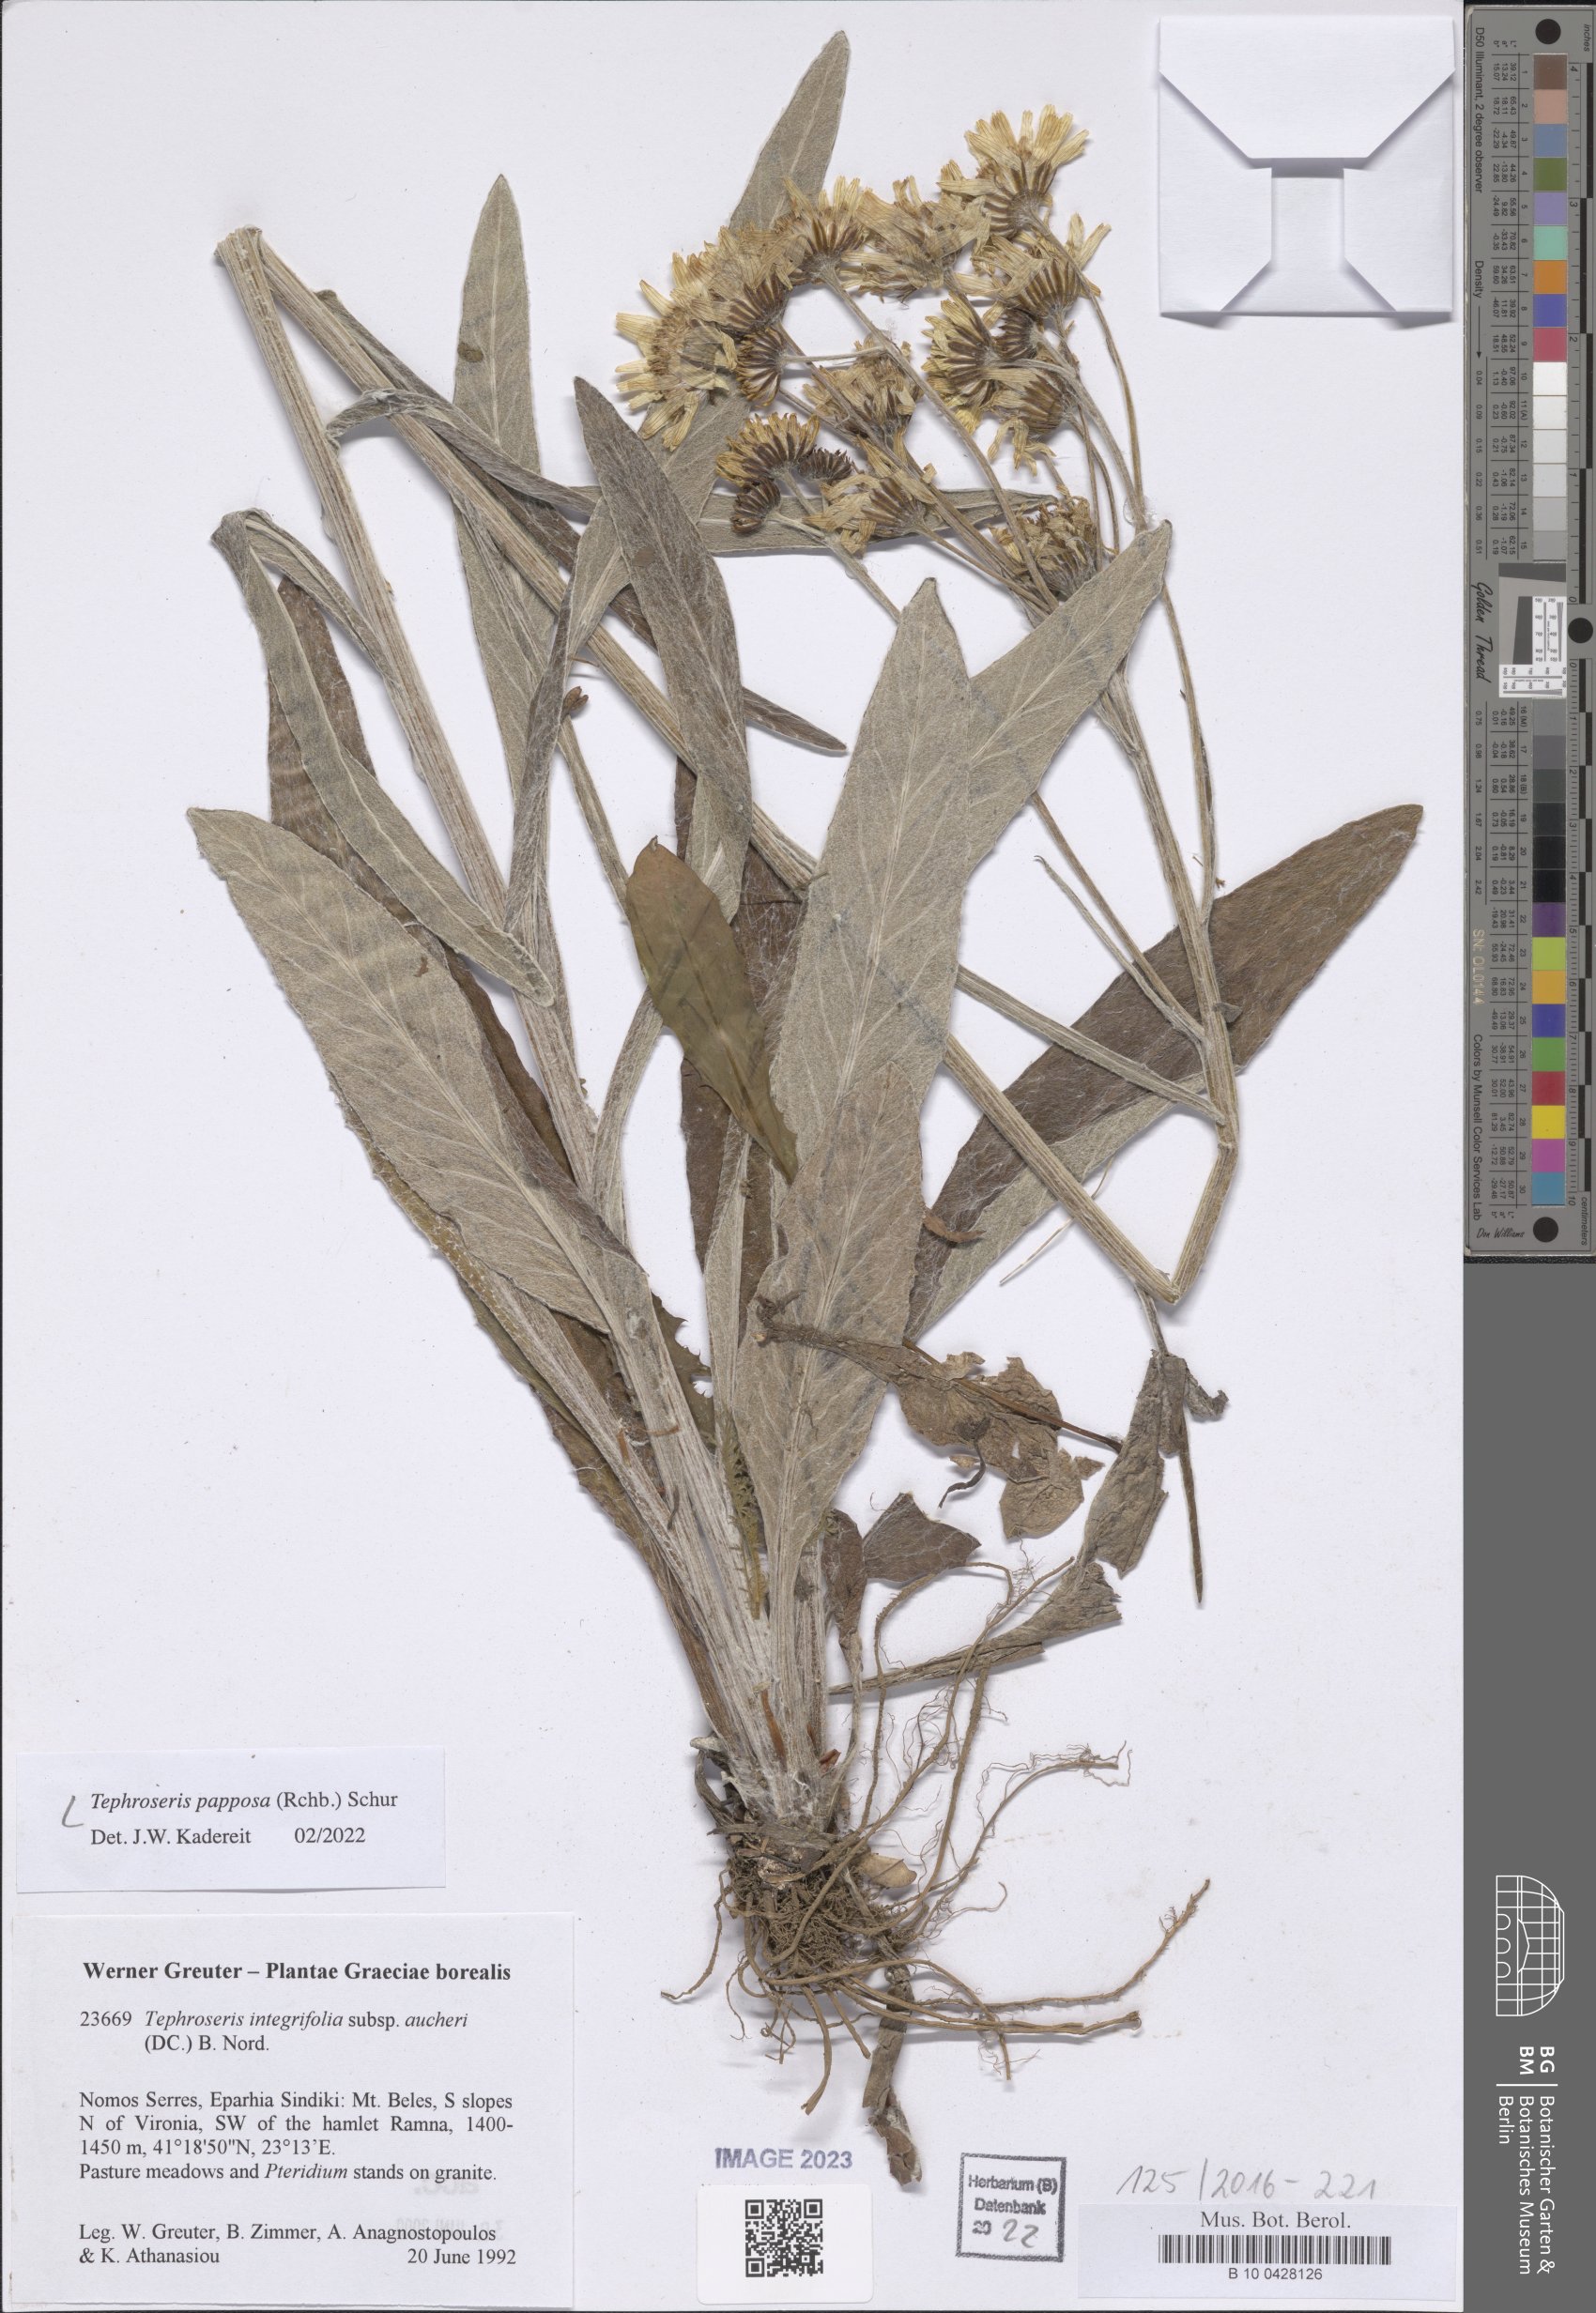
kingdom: Plantae
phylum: Tracheophyta
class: Magnoliopsida
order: Asterales
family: Asteraceae
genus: Tephroseris
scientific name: Tephroseris papposa
